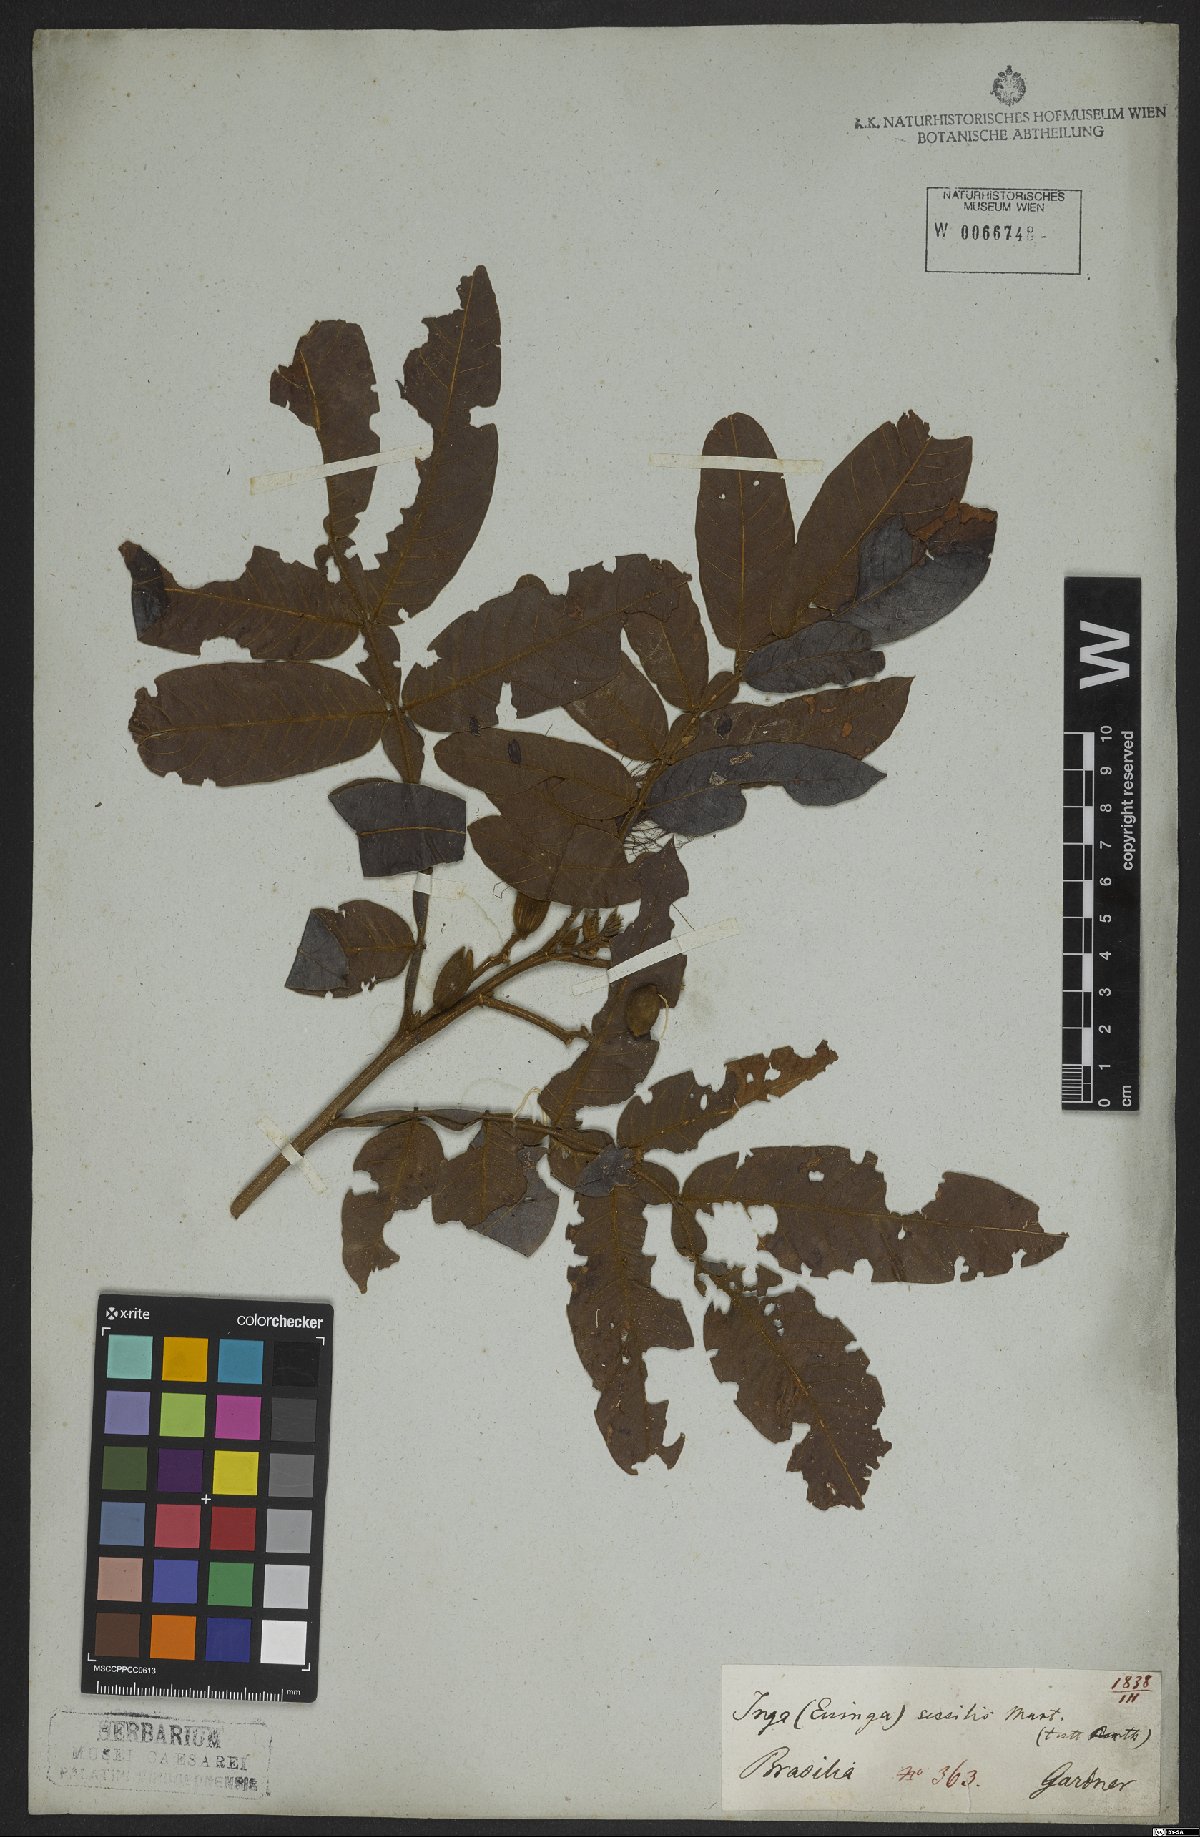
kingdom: Plantae
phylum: Tracheophyta
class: Magnoliopsida
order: Fabales
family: Fabaceae
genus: Inga
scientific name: Inga sessilis
